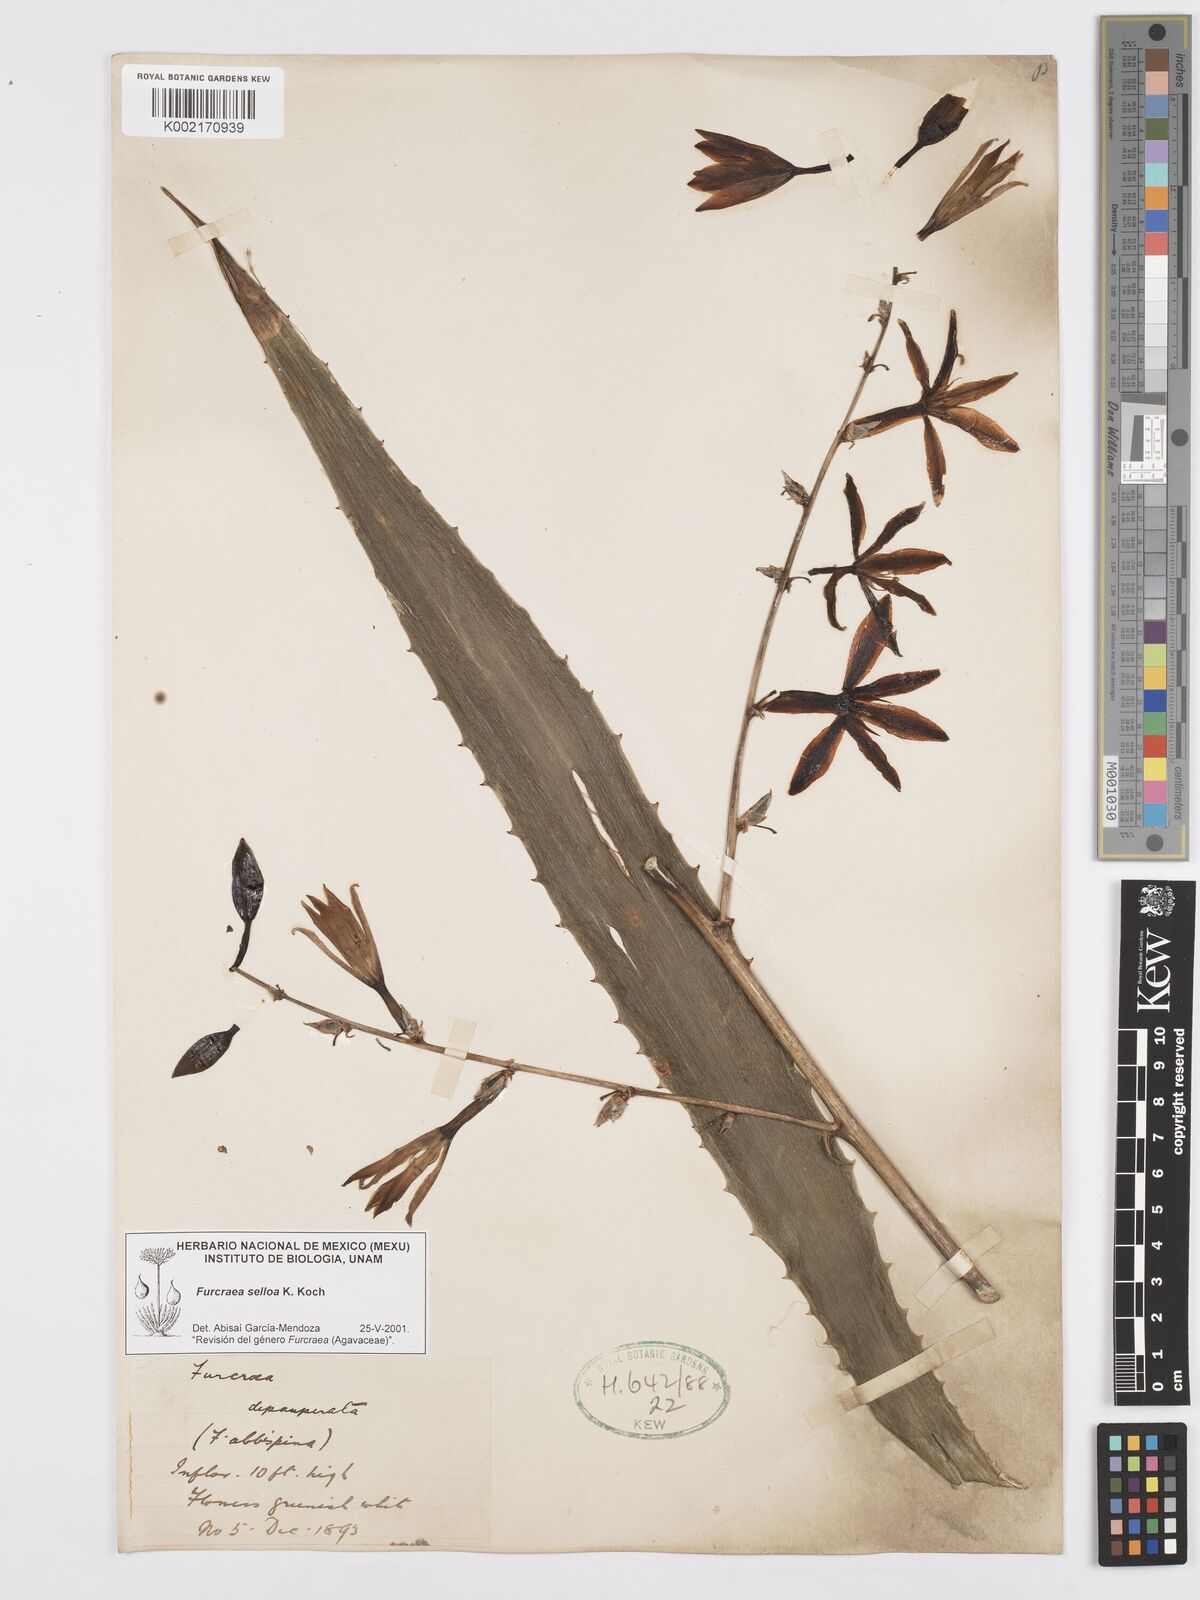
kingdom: Plantae
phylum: Tracheophyta
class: Liliopsida
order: Asparagales
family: Asparagaceae
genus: Furcraea
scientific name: Furcraea selloana
